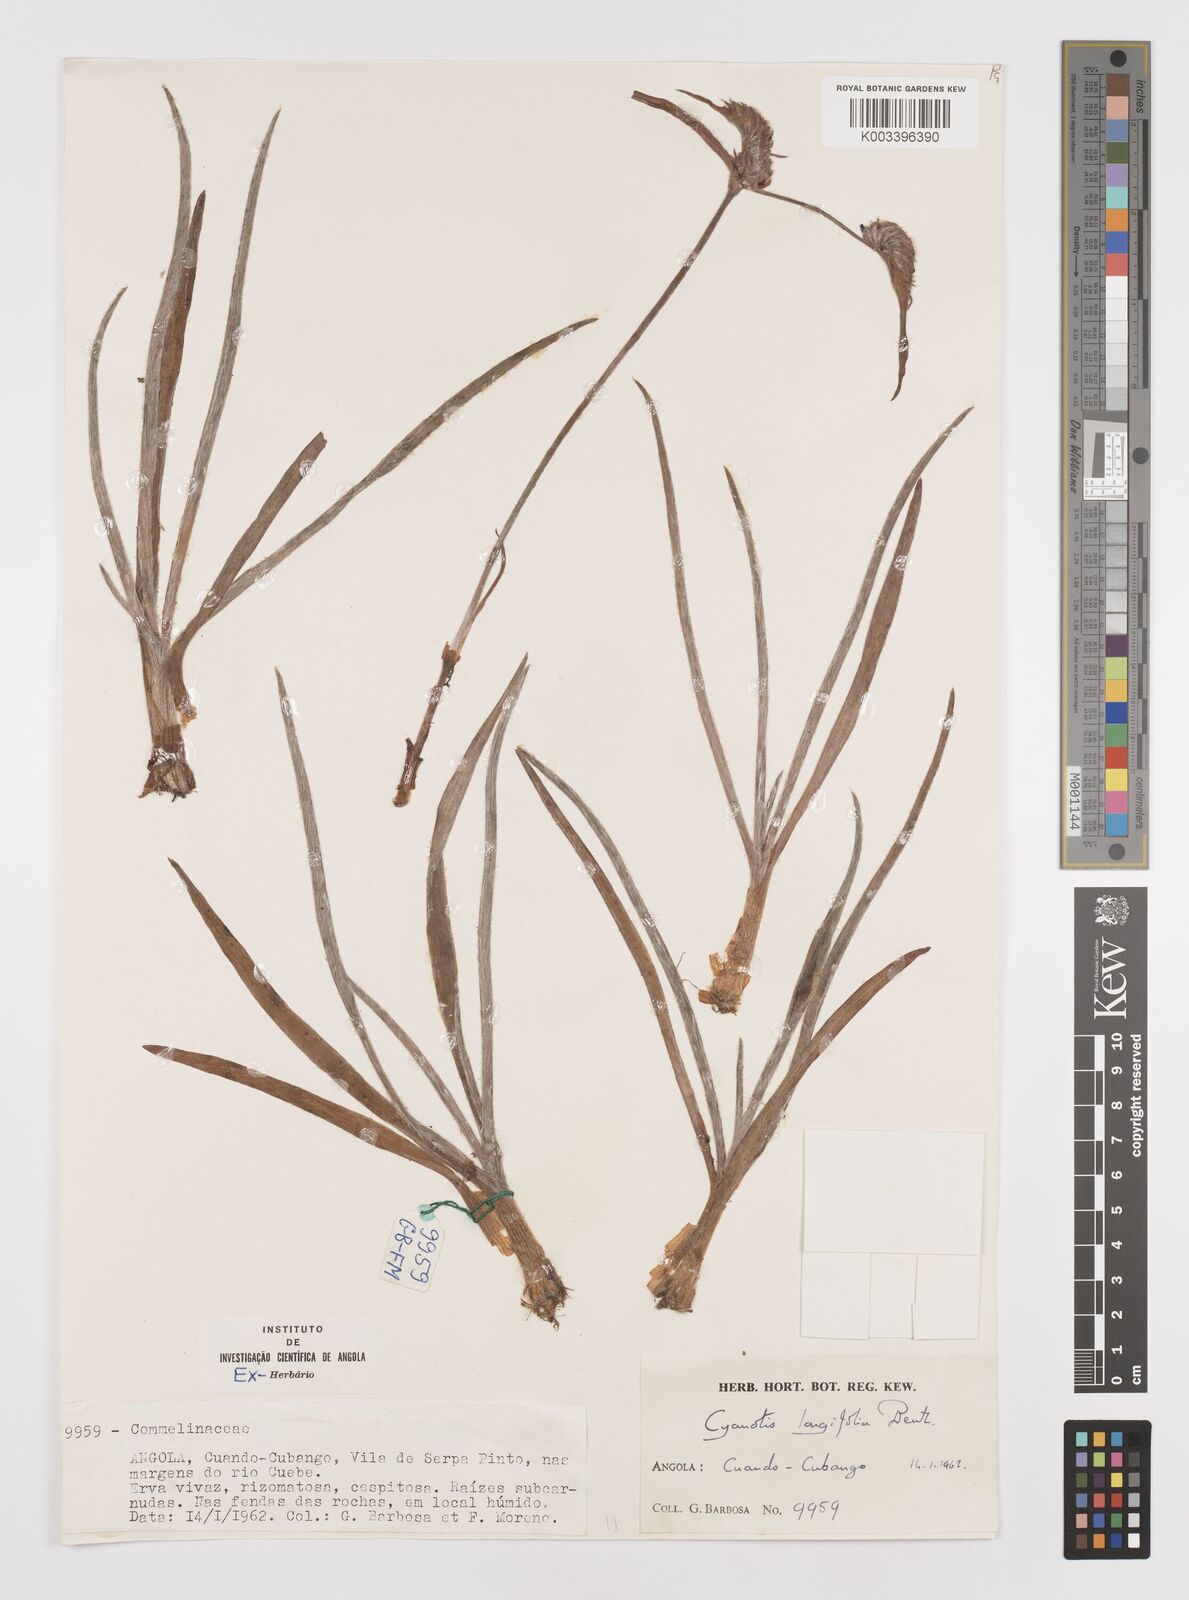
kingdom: Plantae
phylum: Tracheophyta
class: Liliopsida
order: Commelinales
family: Commelinaceae
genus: Cyanotis
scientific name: Cyanotis longifolia
